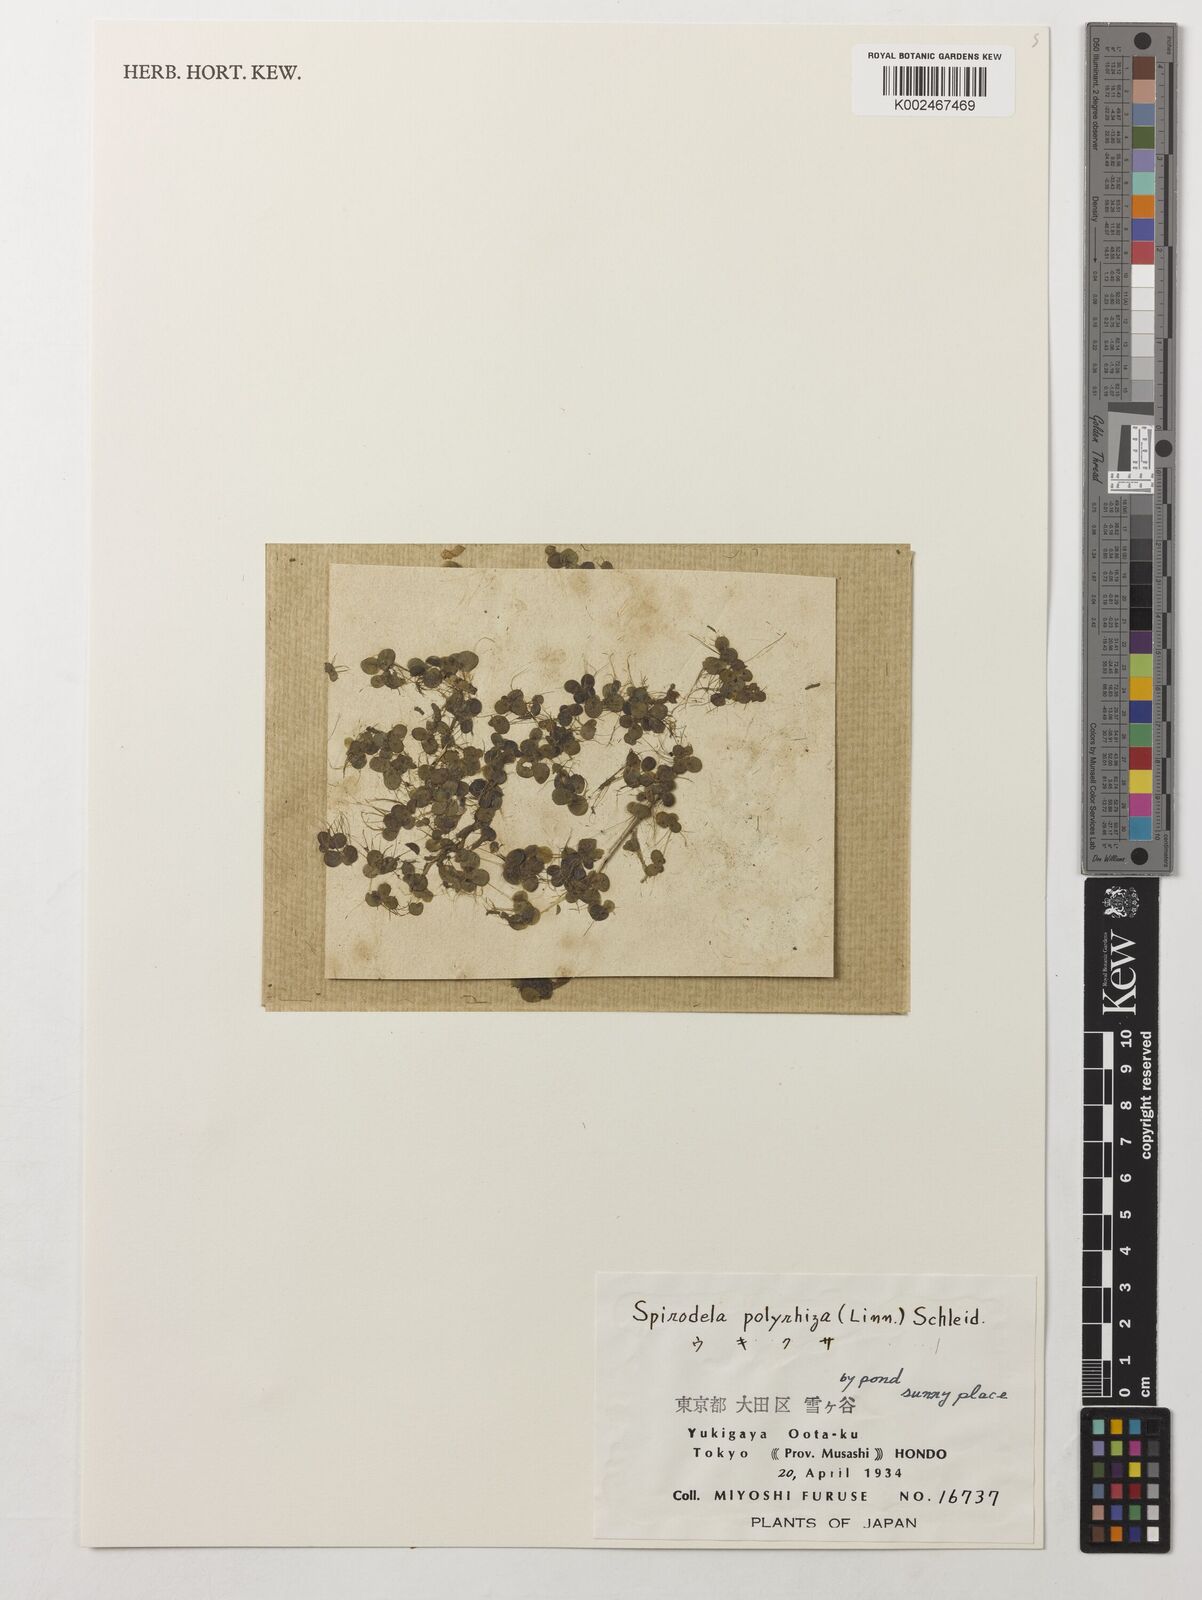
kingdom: Plantae
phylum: Tracheophyta
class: Liliopsida
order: Alismatales
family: Araceae
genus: Spirodela
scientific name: Spirodela polyrhiza
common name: Great duckweed
